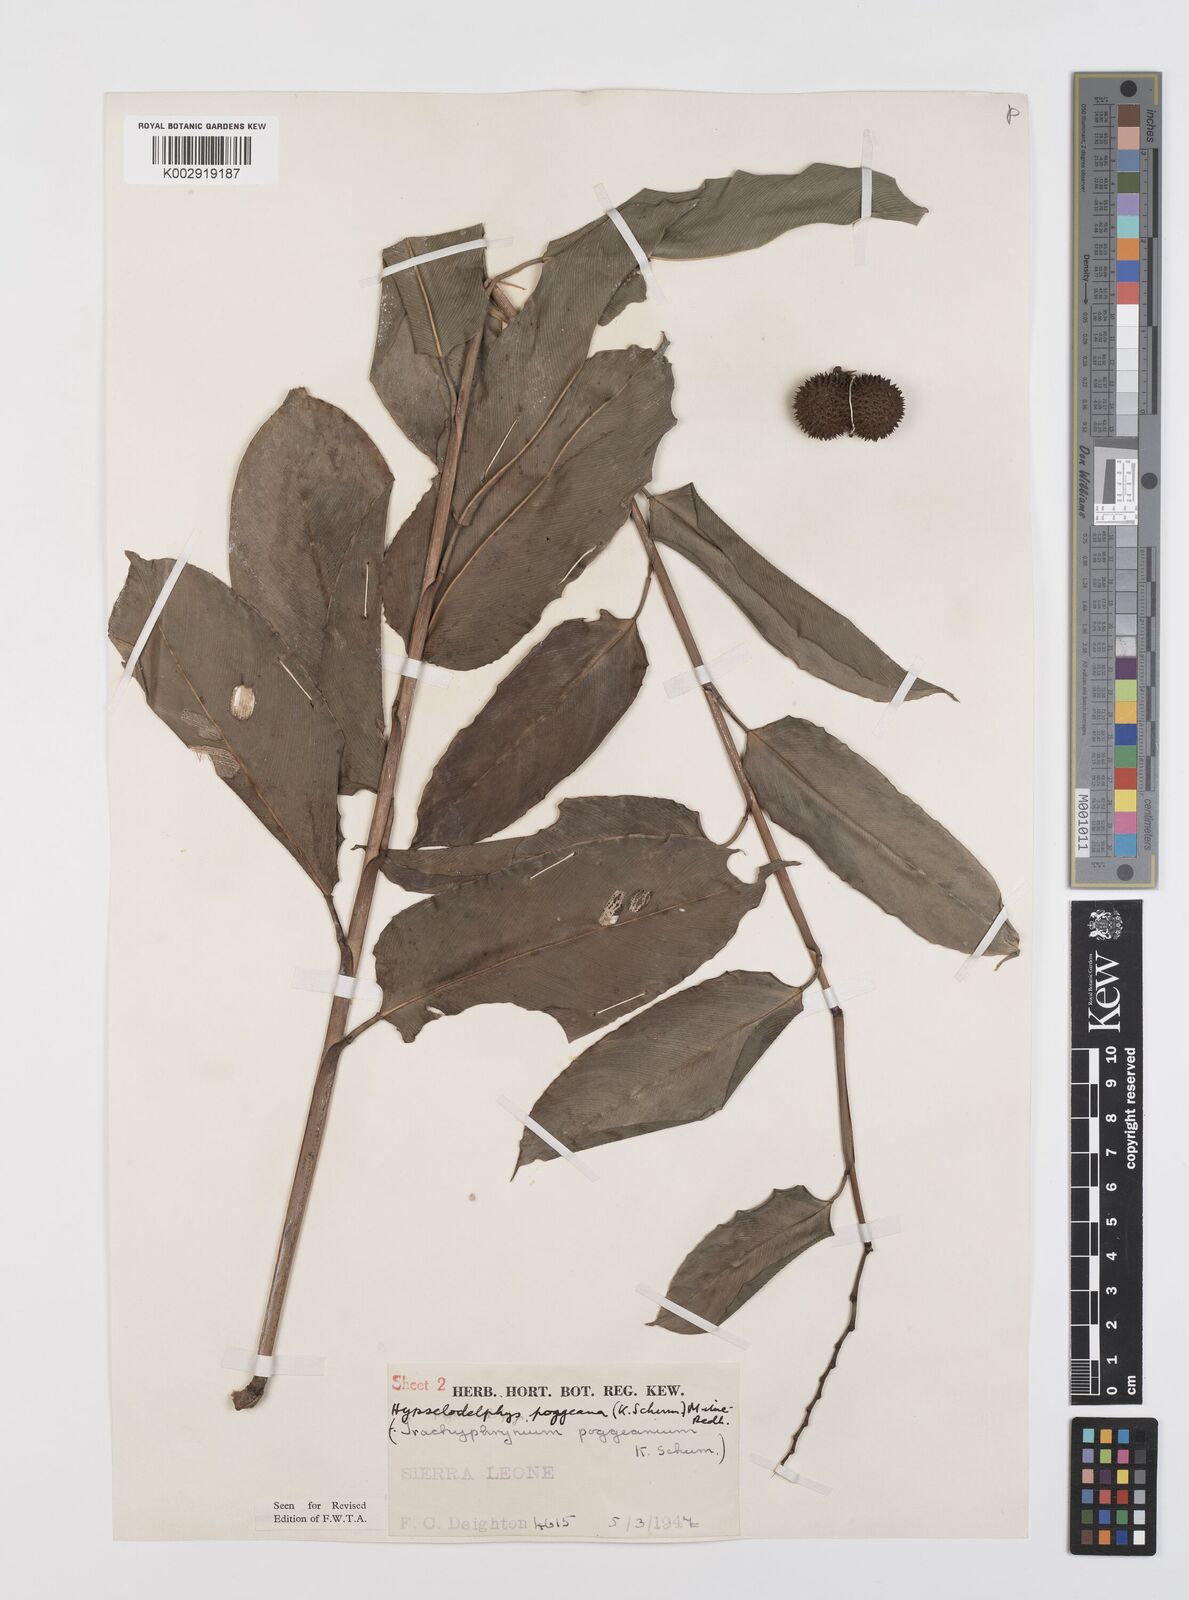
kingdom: Plantae
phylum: Tracheophyta
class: Liliopsida
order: Zingiberales
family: Marantaceae
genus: Hypselodelphys
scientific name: Hypselodelphys poggeana
